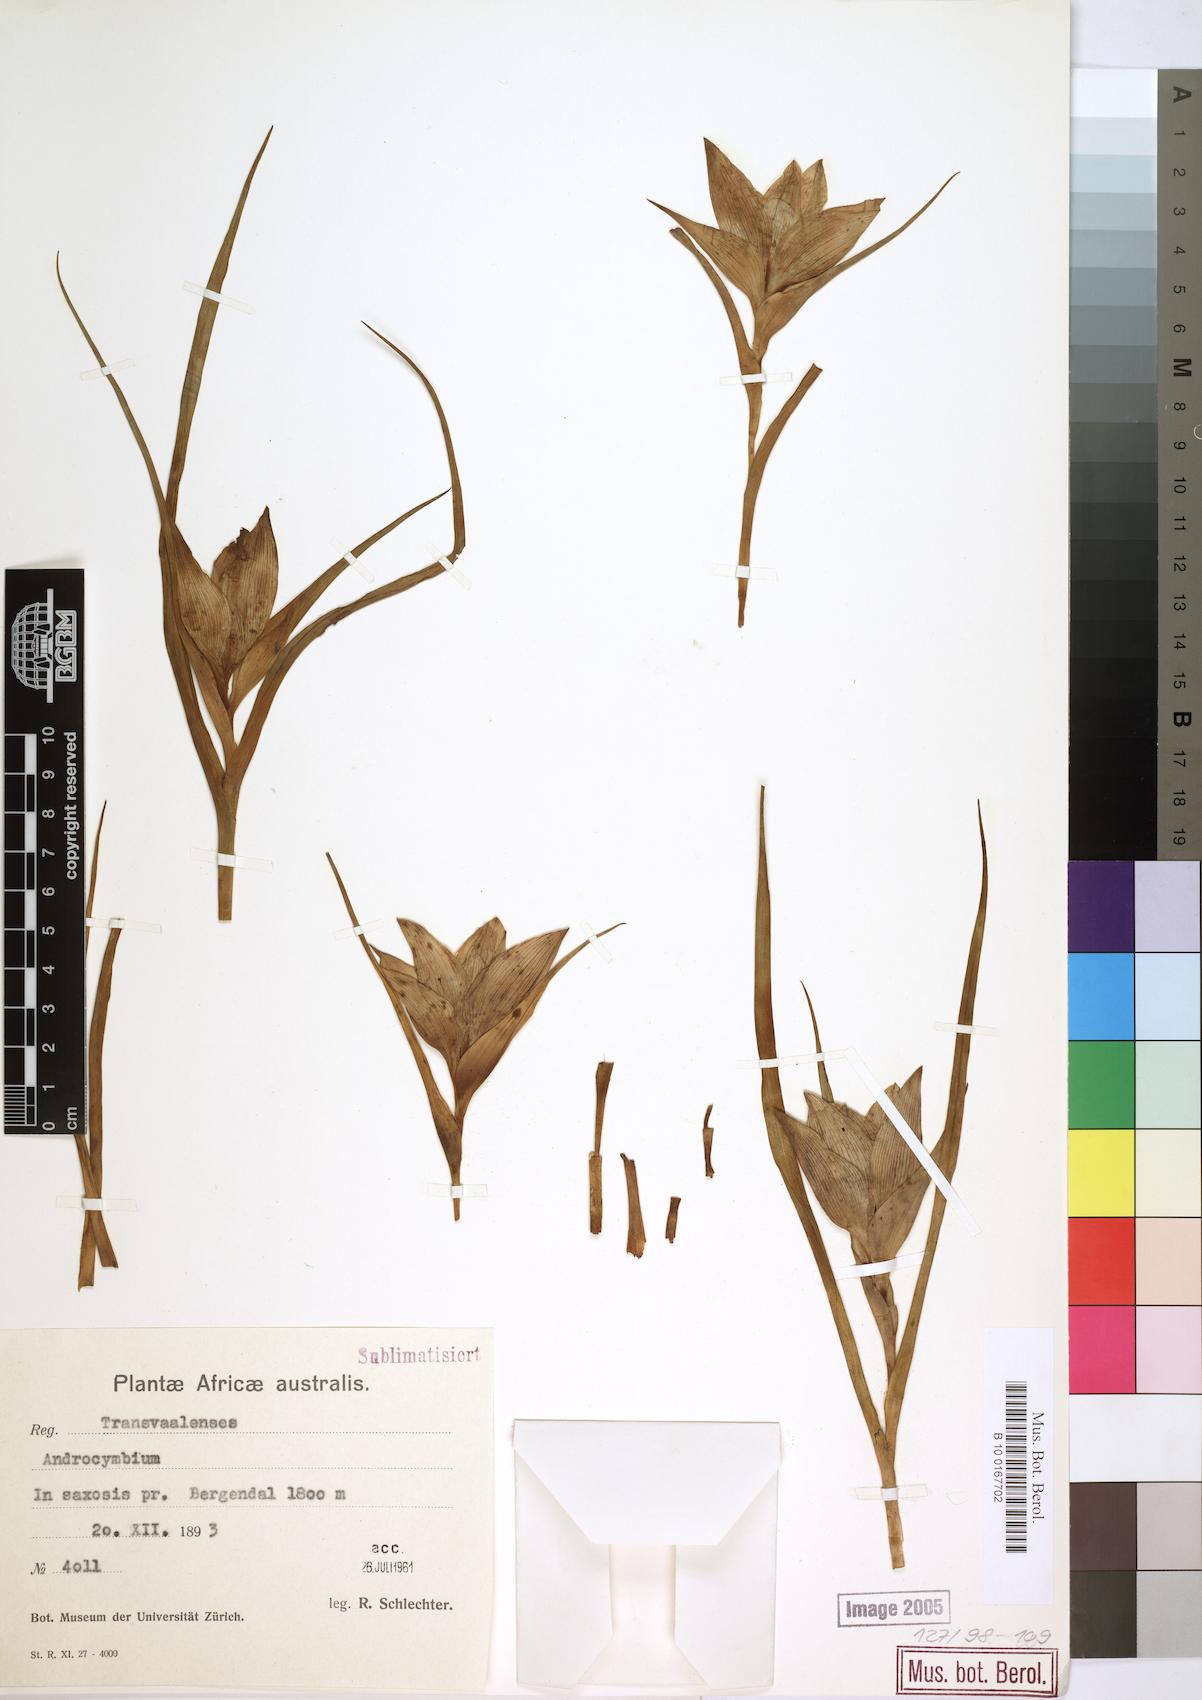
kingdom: Plantae
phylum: Tracheophyta
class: Liliopsida
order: Liliales
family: Colchicaceae
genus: Colchicum
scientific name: Colchicum
